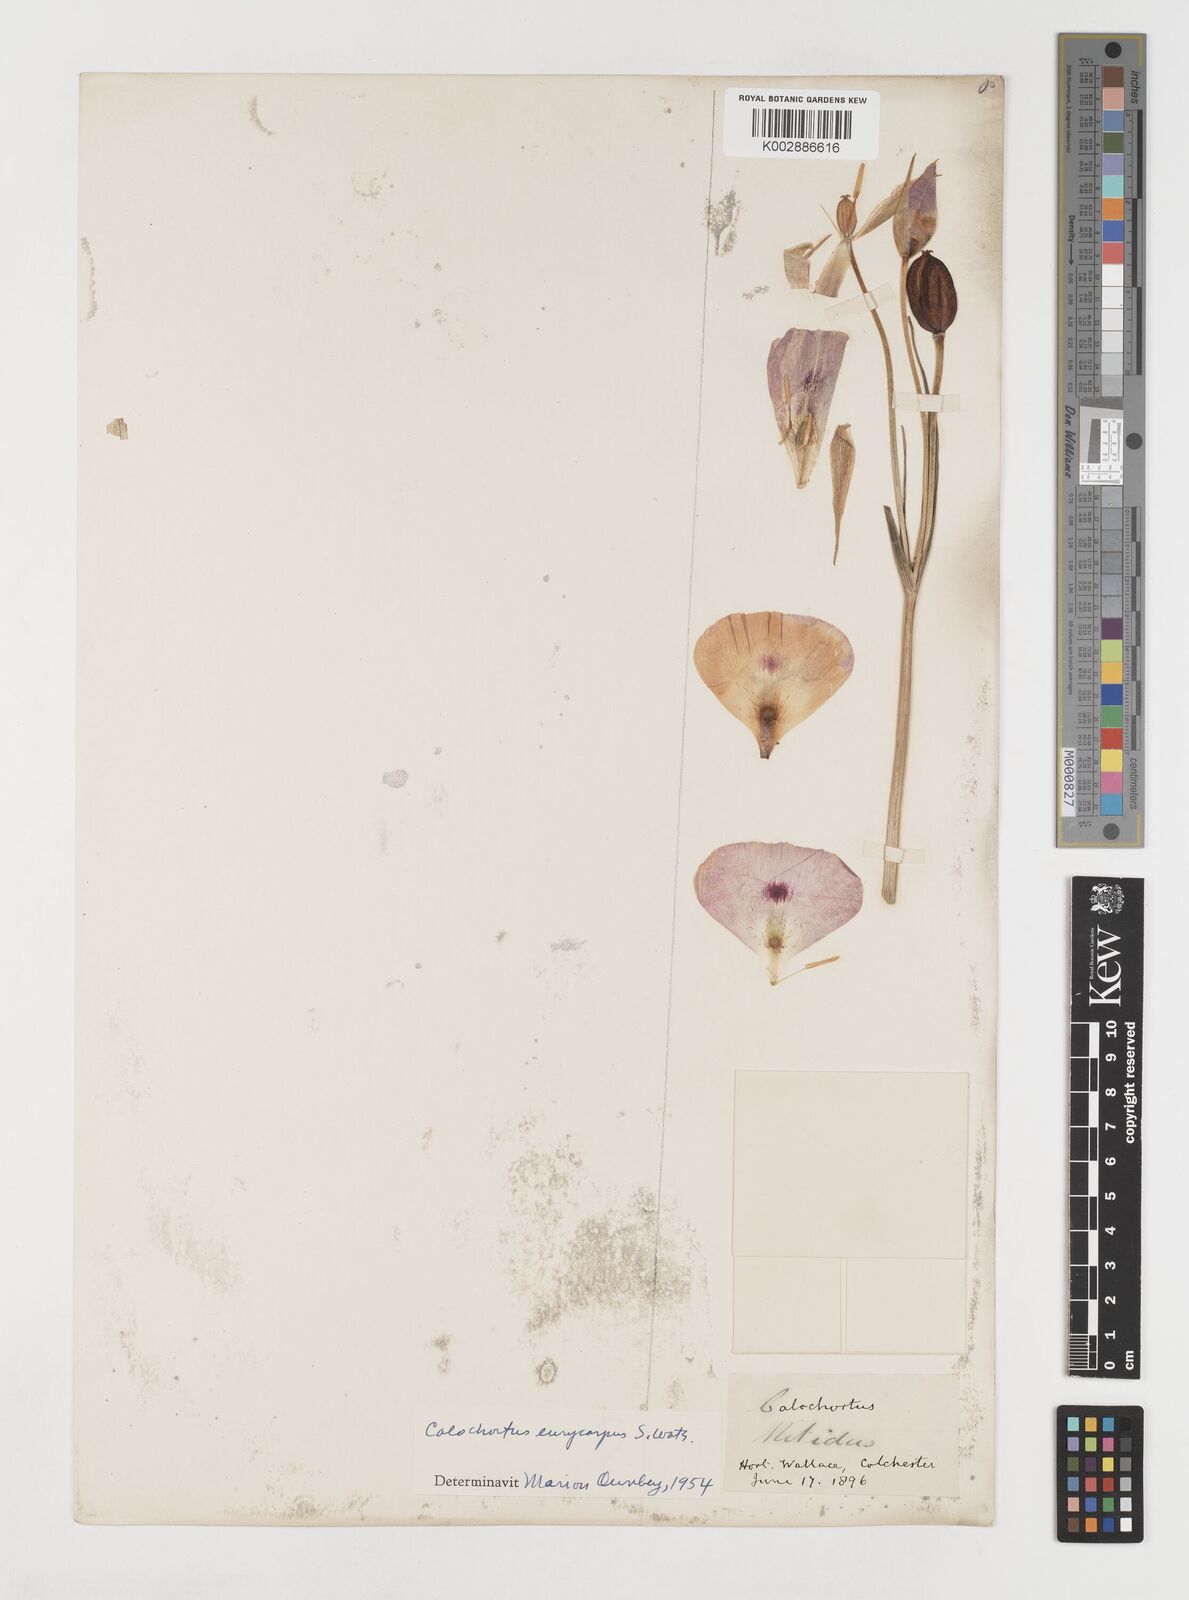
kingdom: Plantae
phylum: Tracheophyta
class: Liliopsida
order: Liliales
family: Liliaceae
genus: Calochortus
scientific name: Calochortus eurycarpus
